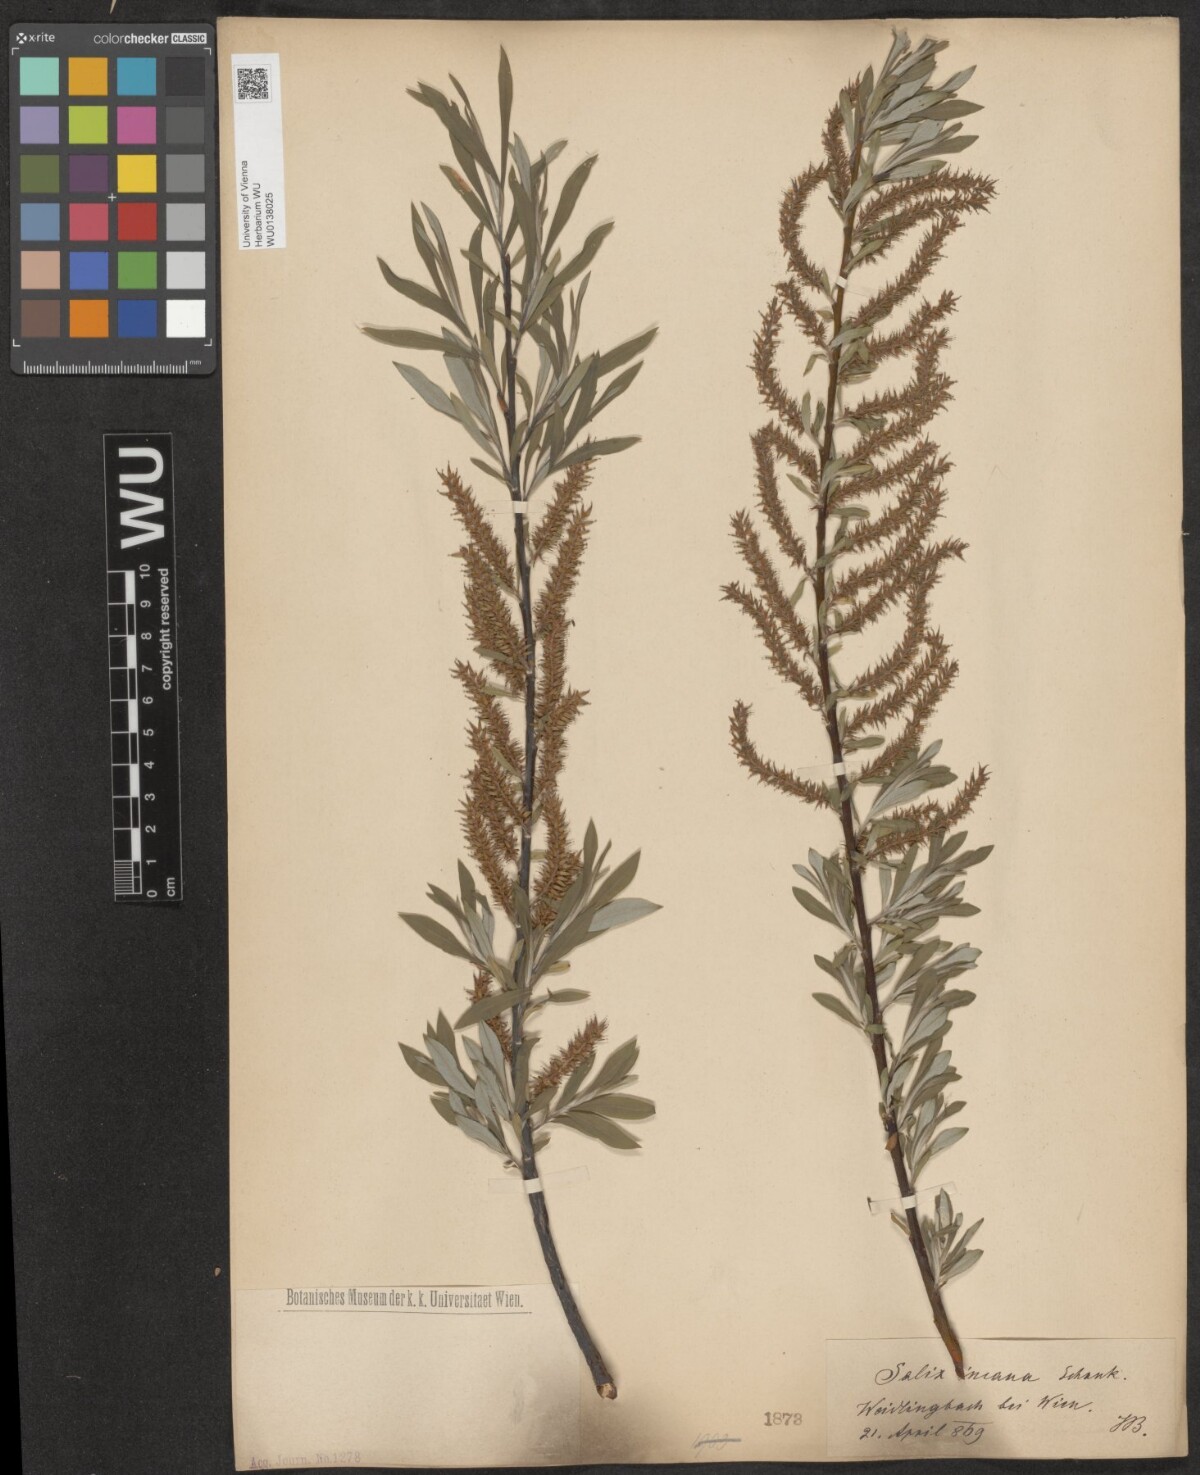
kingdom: Plantae
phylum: Tracheophyta
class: Magnoliopsida
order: Malpighiales
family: Salicaceae
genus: Salix
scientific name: Salix eleagnos
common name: Elaeagnus willow
